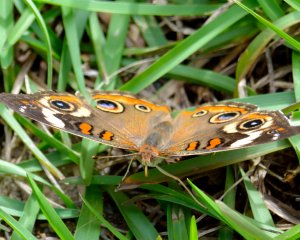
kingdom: Animalia
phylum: Arthropoda
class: Insecta
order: Lepidoptera
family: Nymphalidae
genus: Junonia
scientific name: Junonia coenia
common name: Common Buckeye
